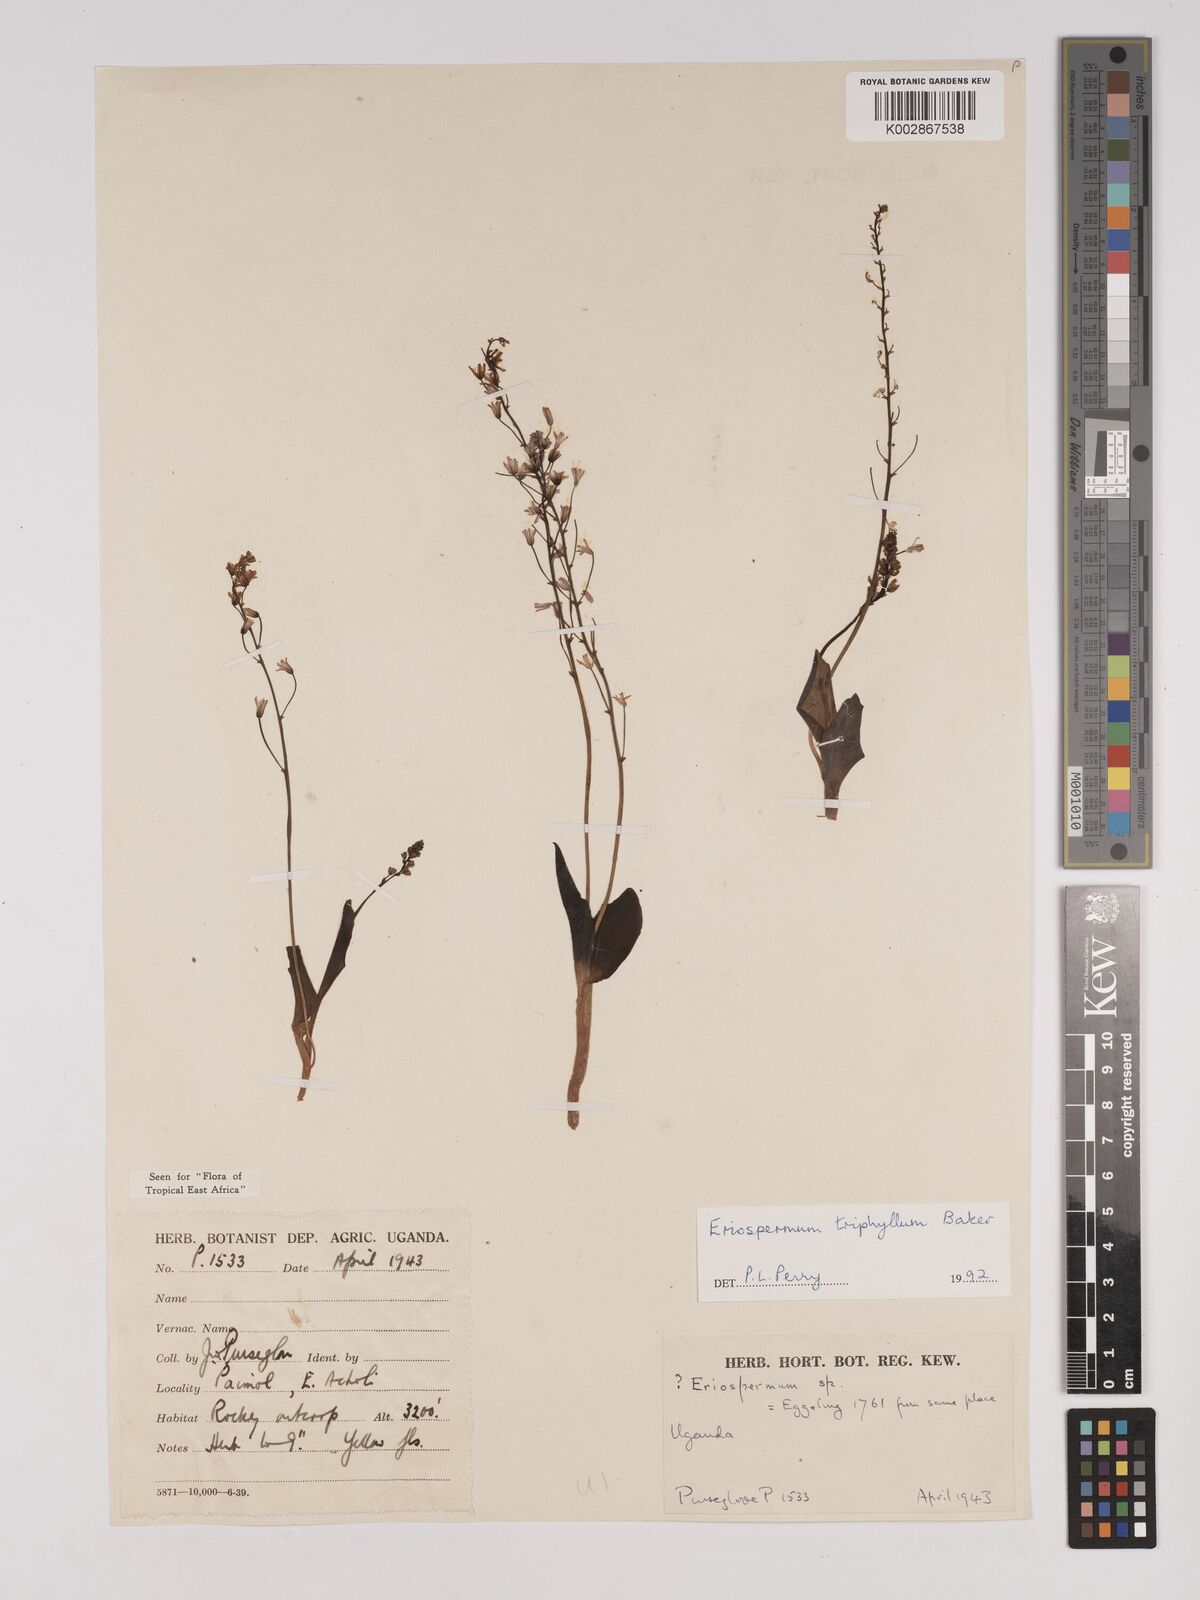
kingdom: Plantae
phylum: Tracheophyta
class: Liliopsida
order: Asparagales
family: Asparagaceae
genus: Eriospermum
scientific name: Eriospermum triphyllum
